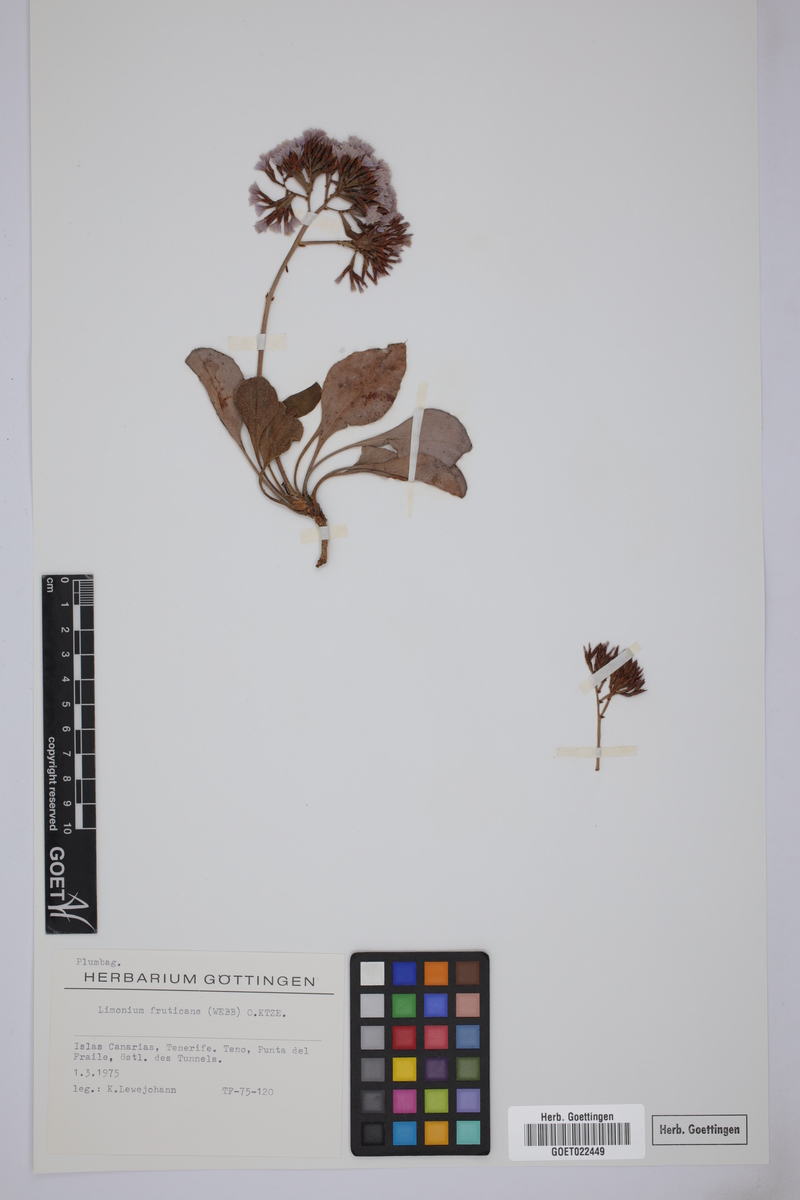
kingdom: Plantae
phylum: Tracheophyta
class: Magnoliopsida
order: Caryophyllales
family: Plumbaginaceae
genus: Limonium
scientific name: Limonium frutescens
